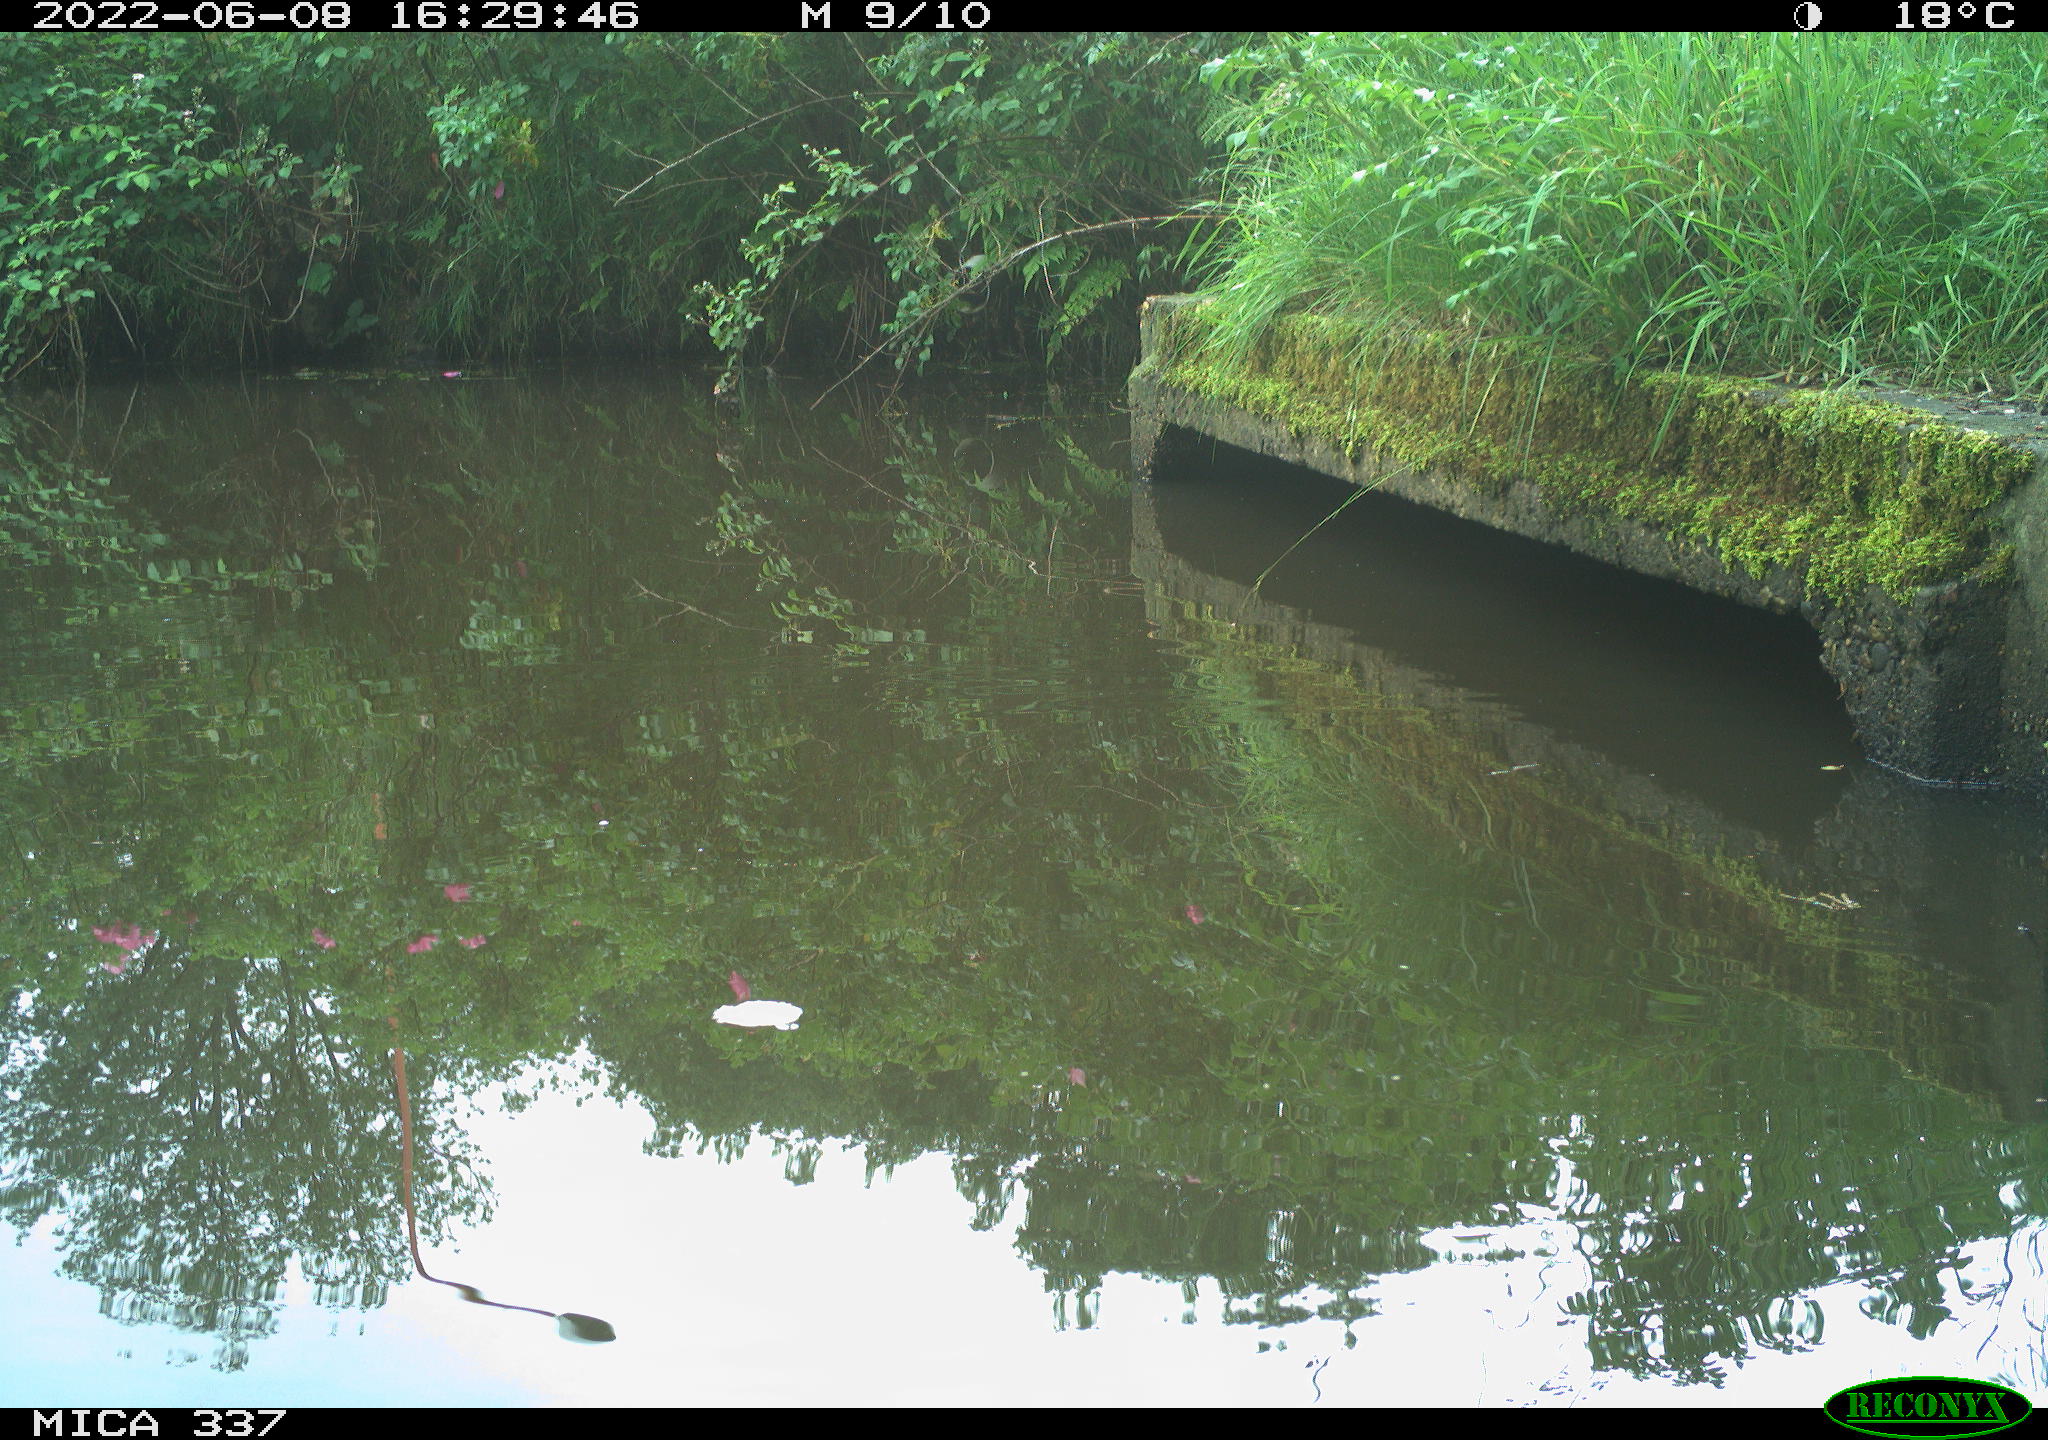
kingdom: Animalia
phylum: Chordata
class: Aves
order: Gruiformes
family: Rallidae
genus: Gallinula
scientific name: Gallinula chloropus
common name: Common moorhen
